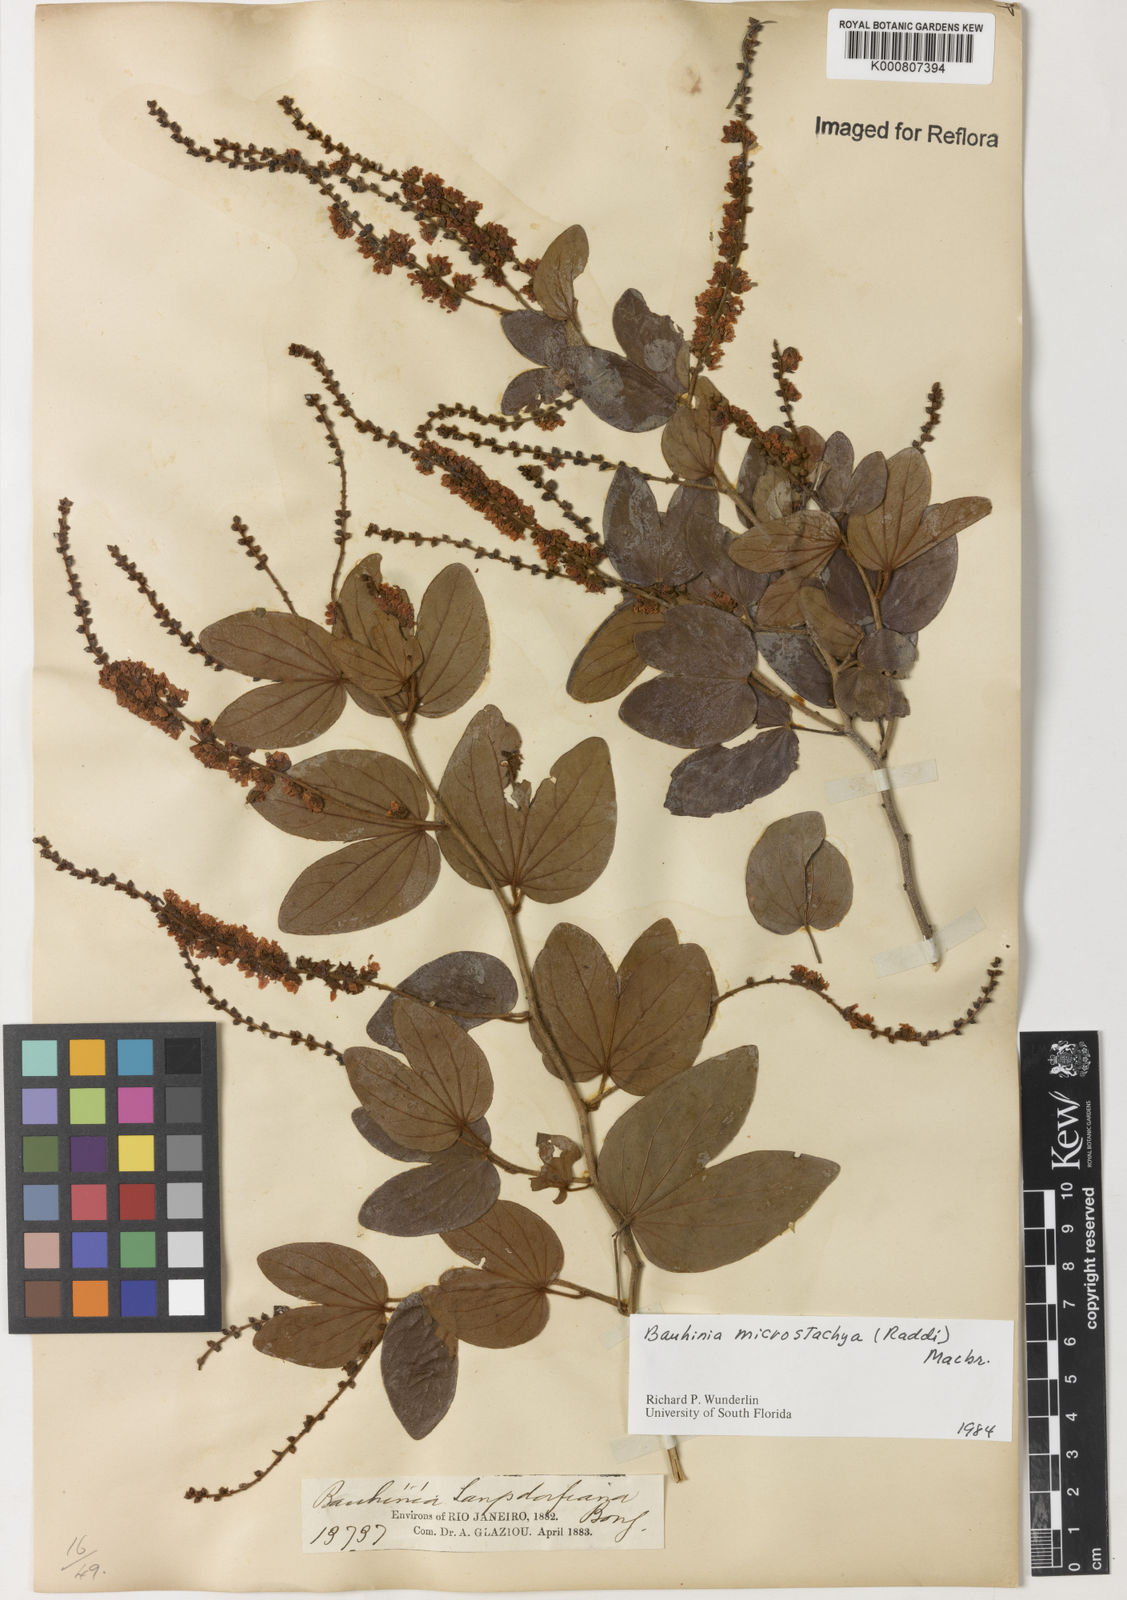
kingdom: Plantae
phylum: Tracheophyta
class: Magnoliopsida
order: Fabales
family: Fabaceae
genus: Schnella
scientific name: Schnella microstachya
